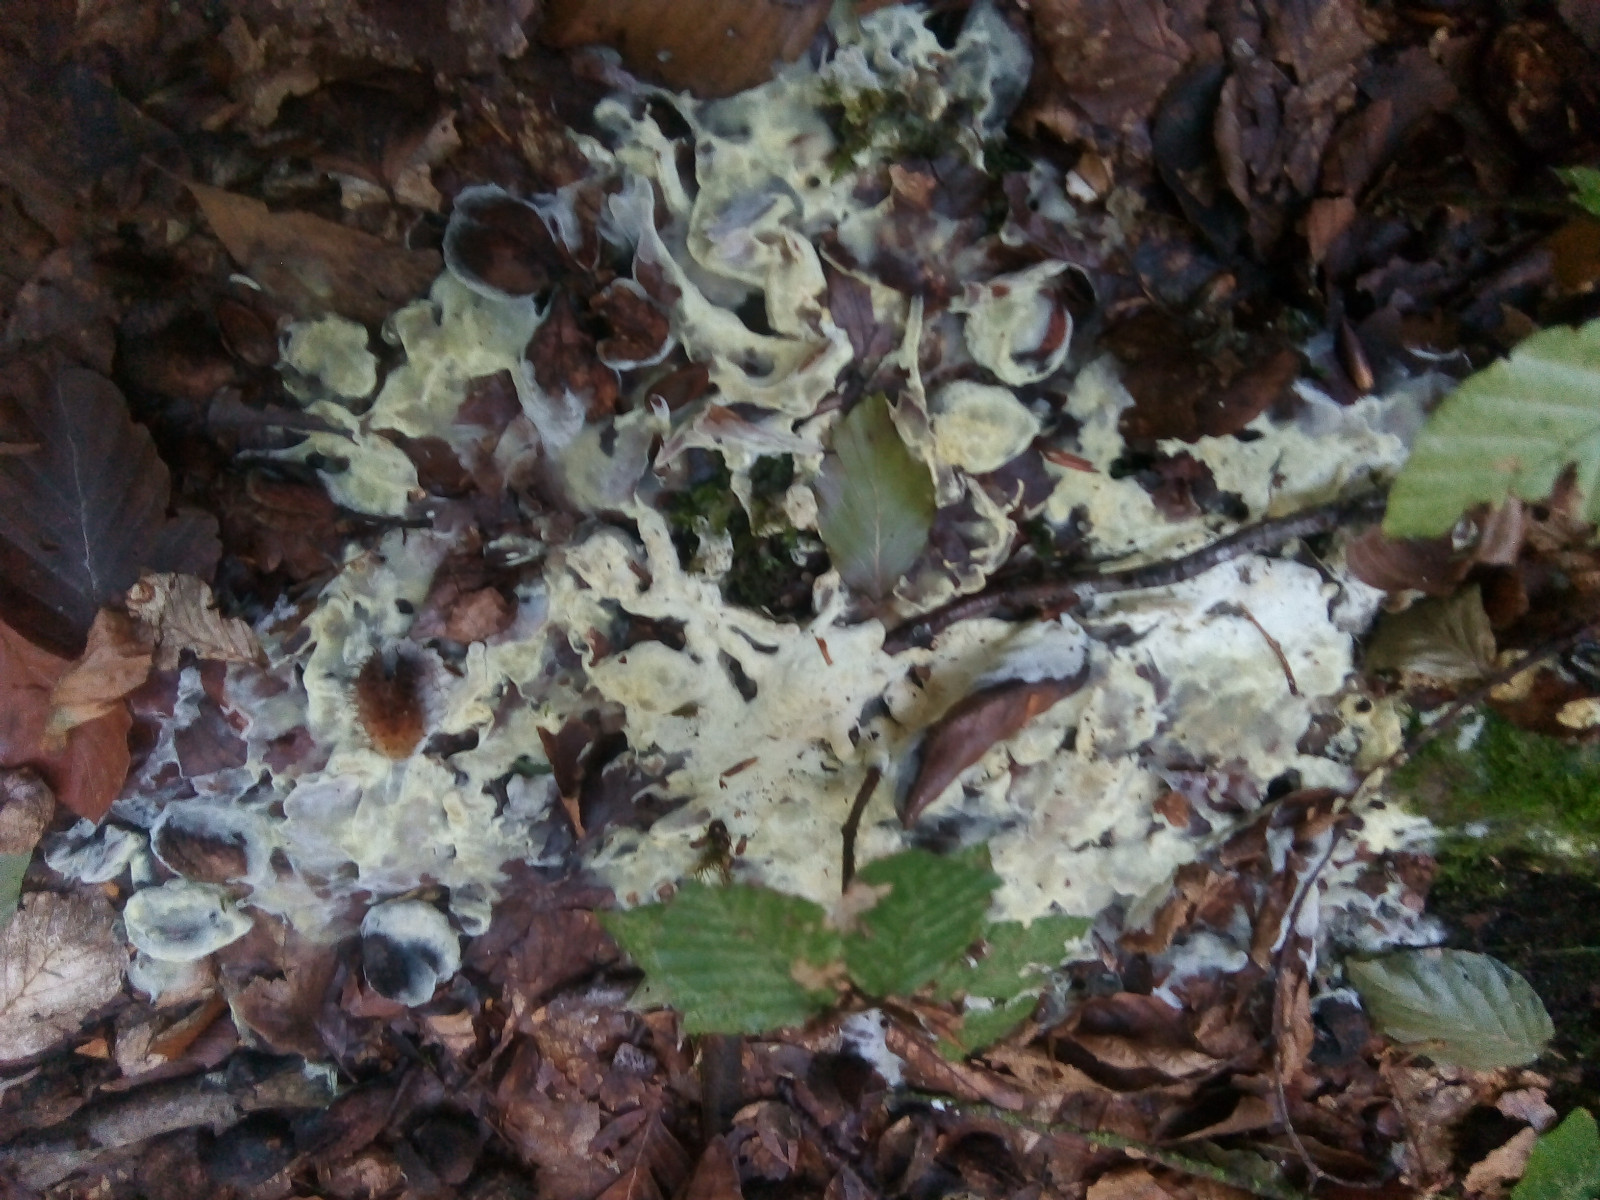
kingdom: Fungi
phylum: Ascomycota
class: Sordariomycetes
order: Hypocreales
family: Hypocreaceae
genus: Trichoderma
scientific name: Trichoderma citrinum
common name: udbredt kødkerne
